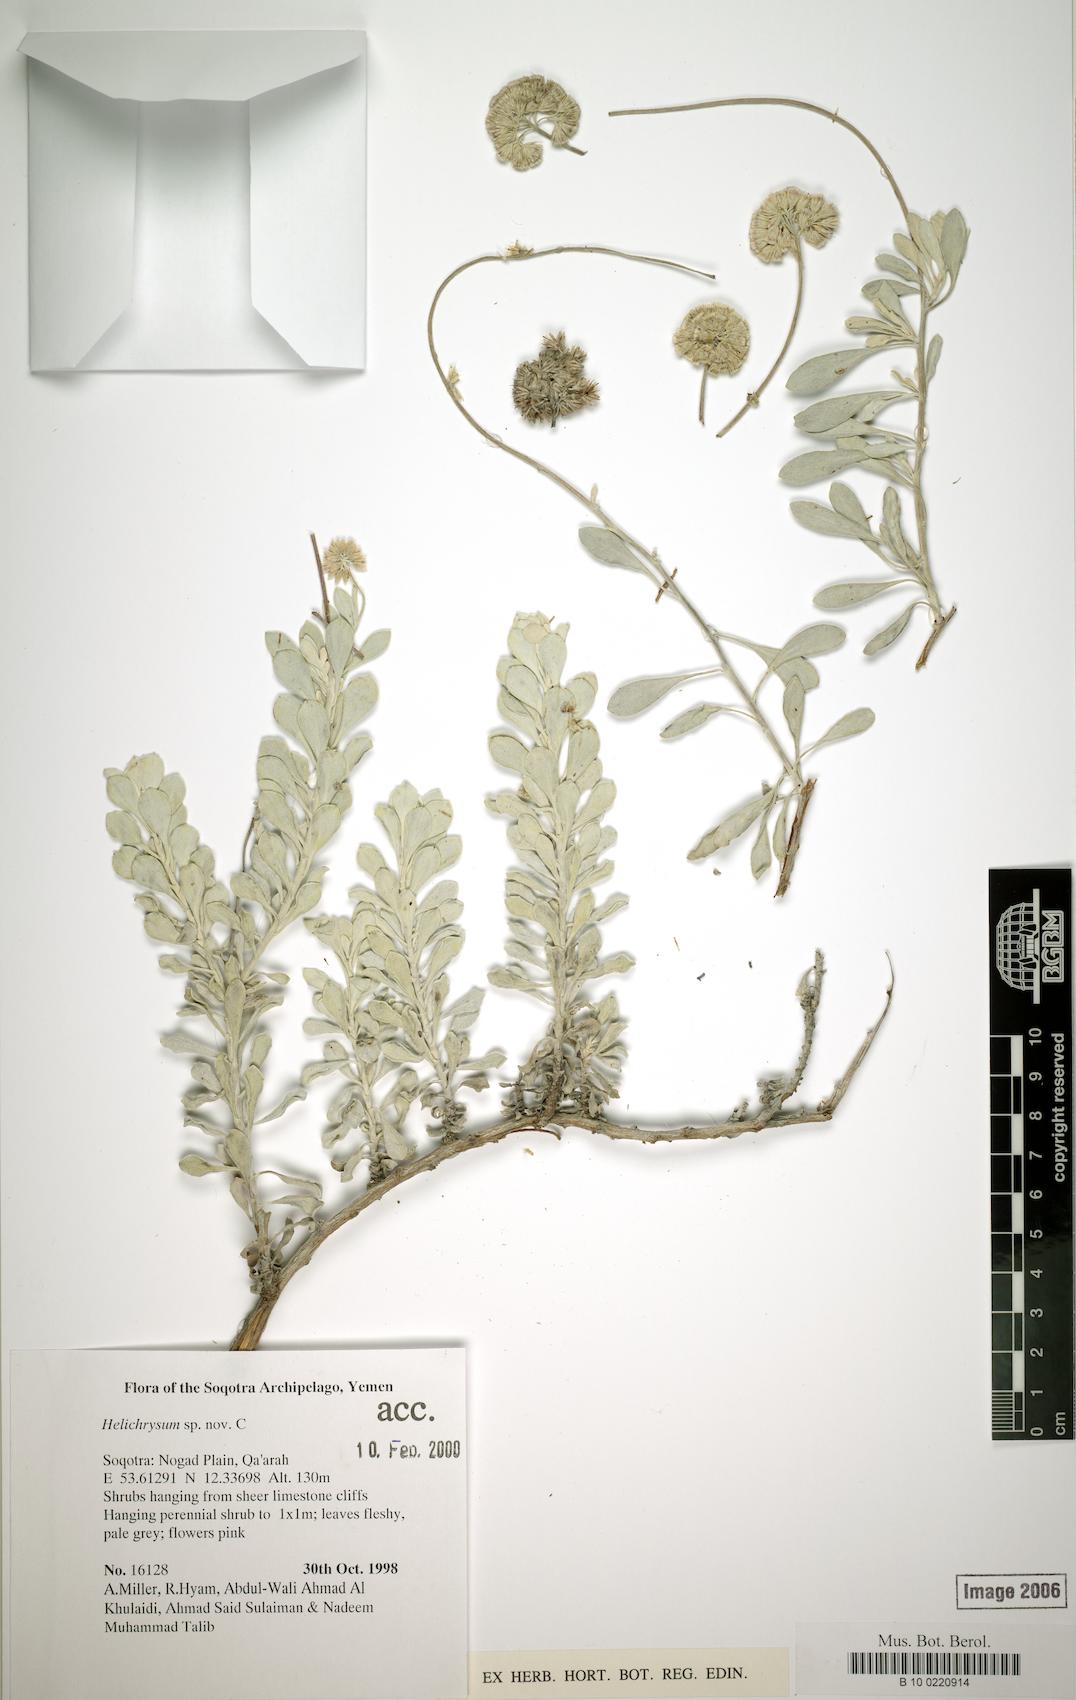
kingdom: Plantae
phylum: Tracheophyta
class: Magnoliopsida
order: Asterales
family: Asteraceae
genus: Libinhania
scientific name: Libinhania fontinalis
